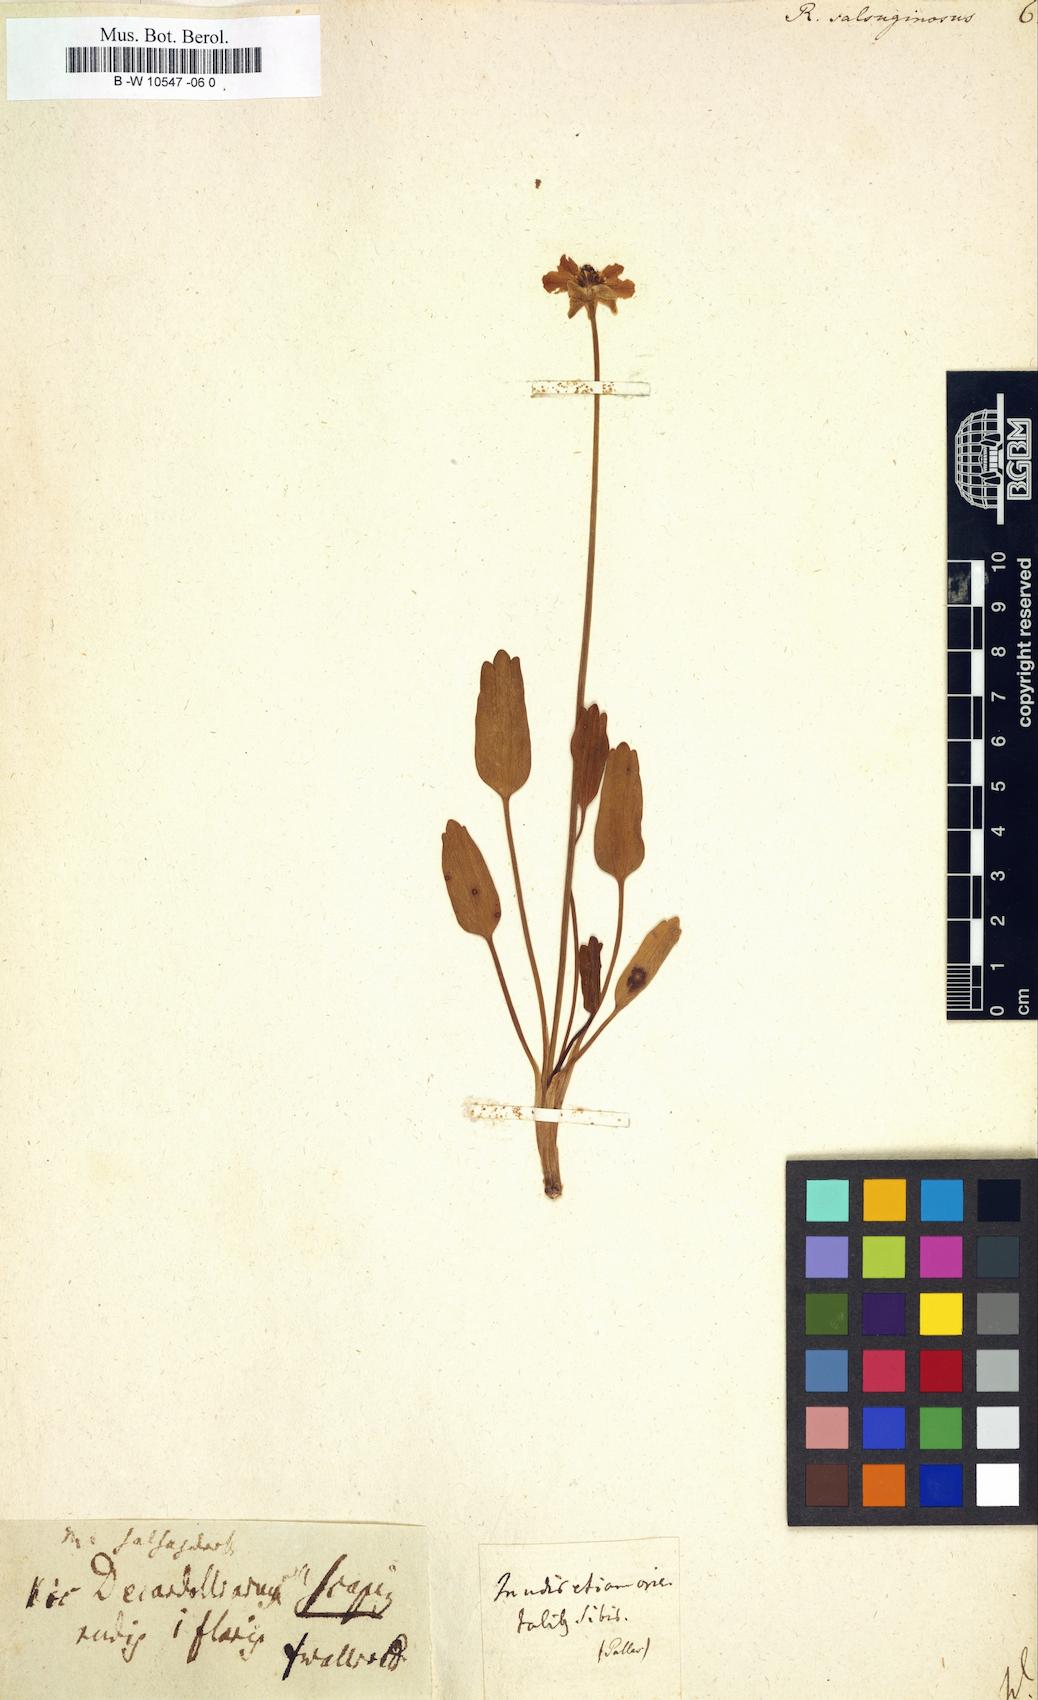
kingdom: Plantae
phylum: Tracheophyta
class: Magnoliopsida
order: Ranunculales
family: Ranunculaceae
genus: Halerpestes
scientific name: Halerpestes ruthenica
